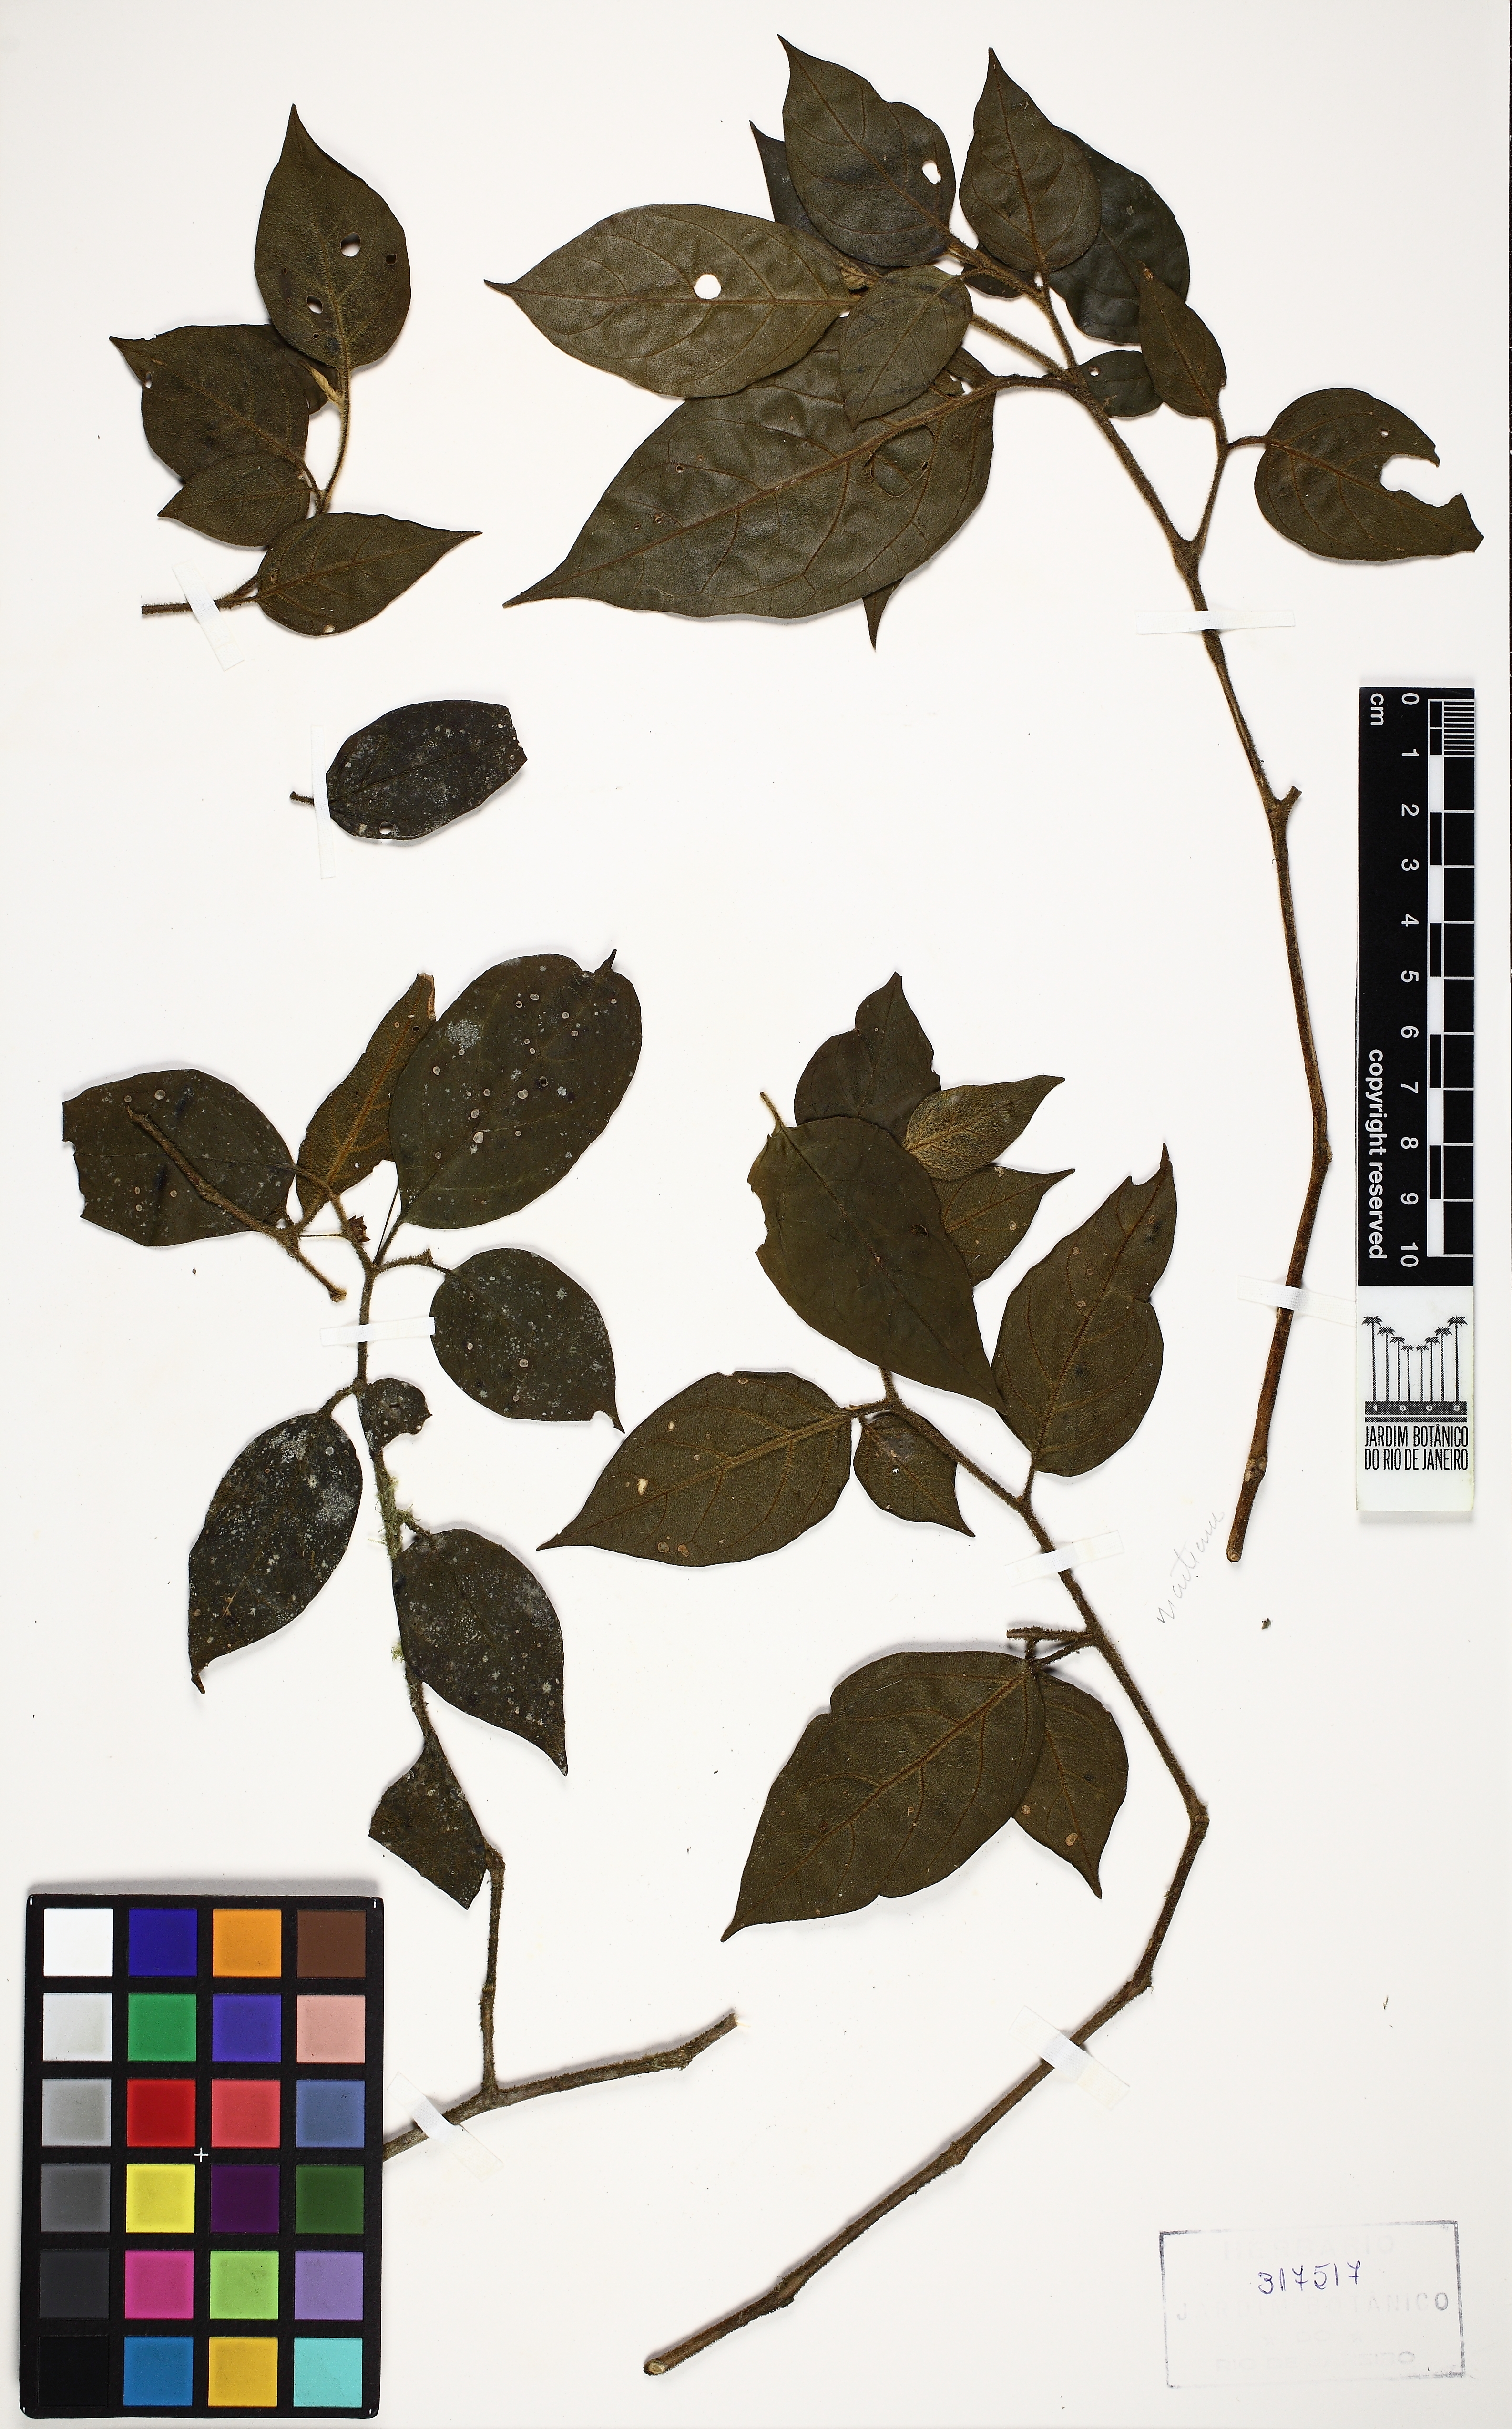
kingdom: Plantae
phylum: Tracheophyta
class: Magnoliopsida
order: Solanales
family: Solanaceae
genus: Athenaea
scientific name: Athenaea anonacea
